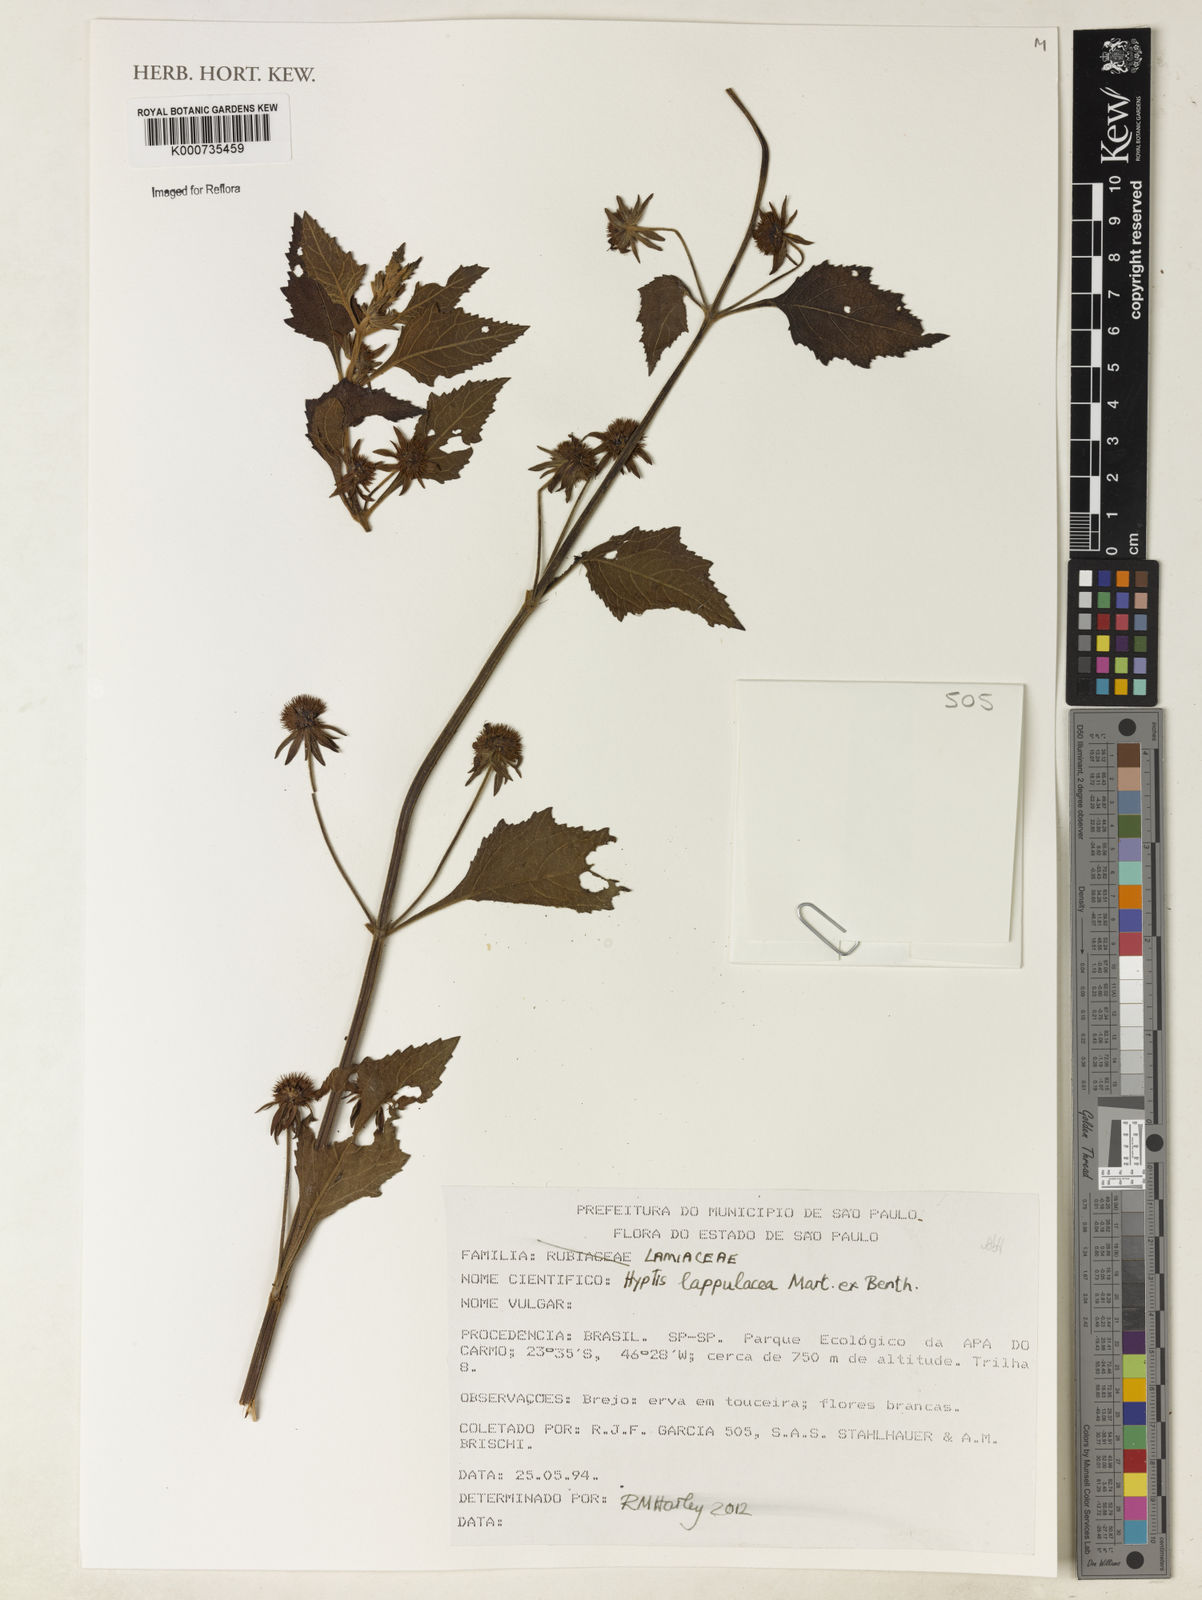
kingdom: Plantae
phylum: Tracheophyta
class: Magnoliopsida
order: Lamiales
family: Lamiaceae
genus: Hyptis
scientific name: Hyptis lappulacea
